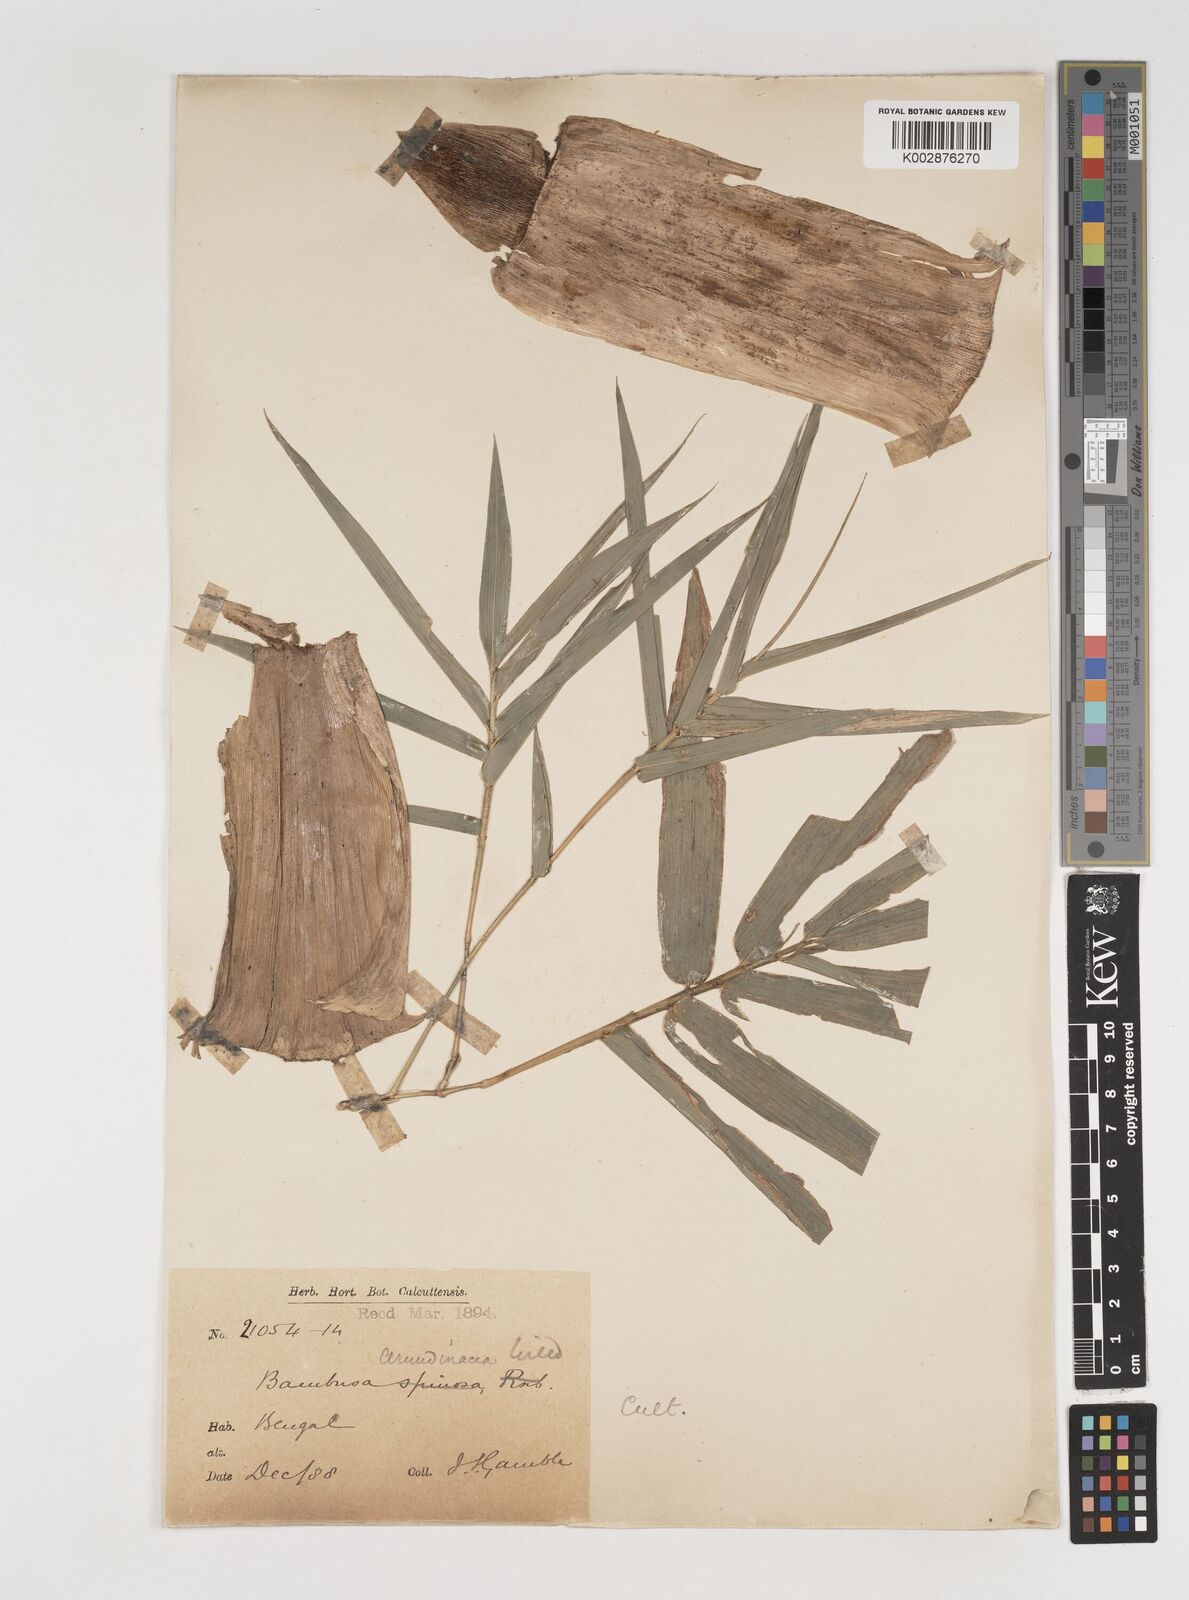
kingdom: Plantae
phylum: Tracheophyta
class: Liliopsida
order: Poales
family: Poaceae
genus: Bambusa
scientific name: Bambusa bambos
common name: Indian thorny bamboo
